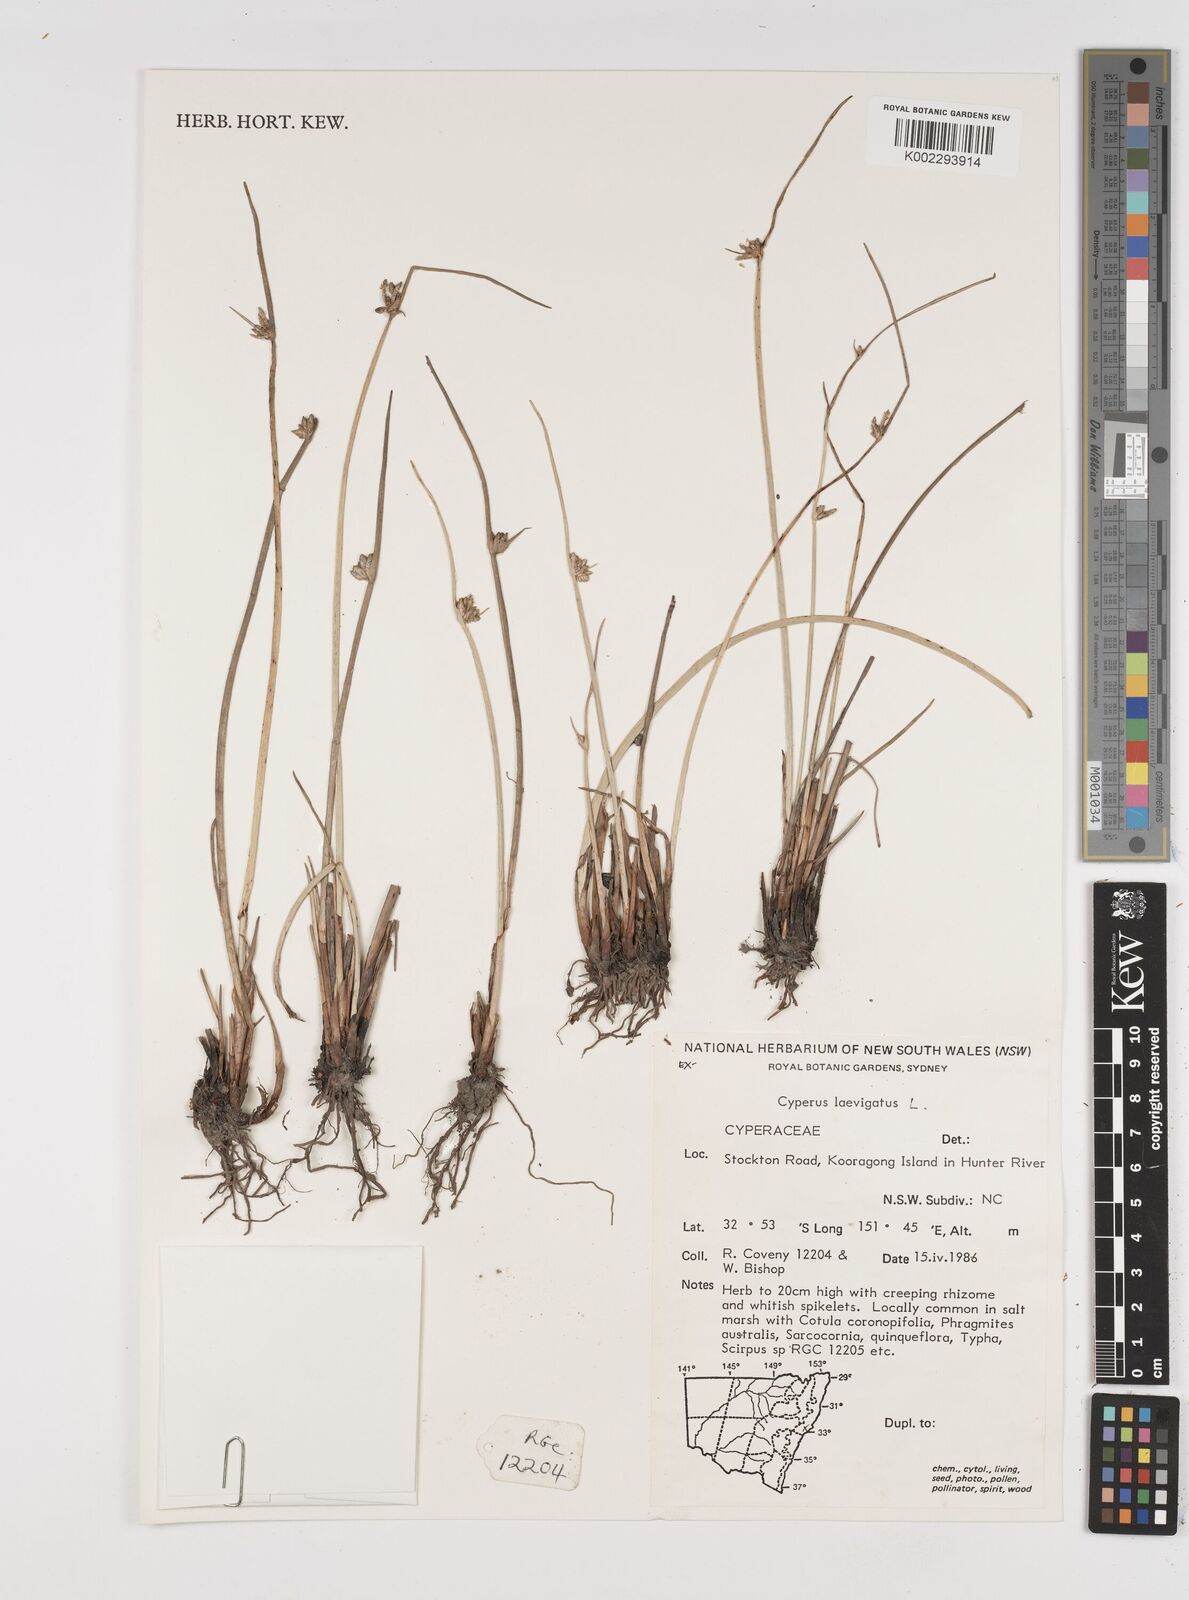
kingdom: Plantae
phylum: Tracheophyta
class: Liliopsida
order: Poales
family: Cyperaceae
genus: Cyperus
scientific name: Cyperus laevigatus
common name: Smooth flat sedge
